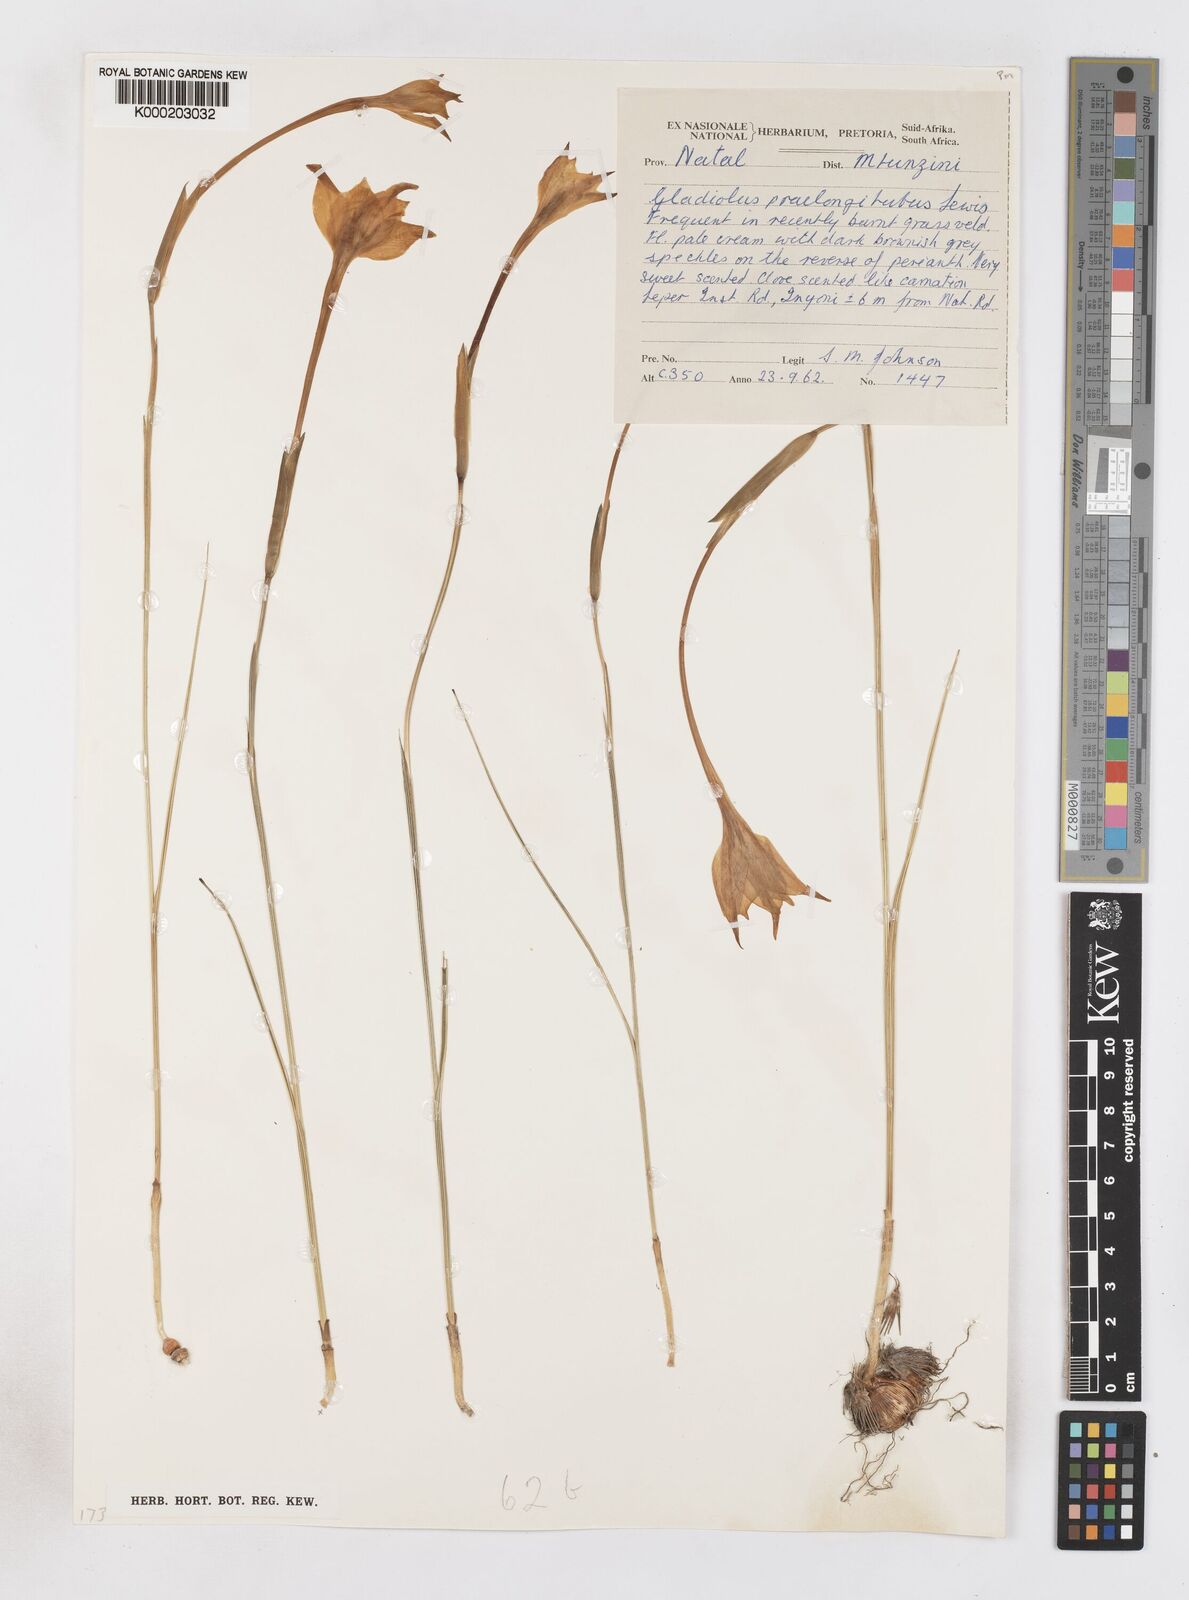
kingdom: Plantae
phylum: Tracheophyta
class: Liliopsida
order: Asparagales
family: Iridaceae
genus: Gladiolus
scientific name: Gladiolus longicollis
